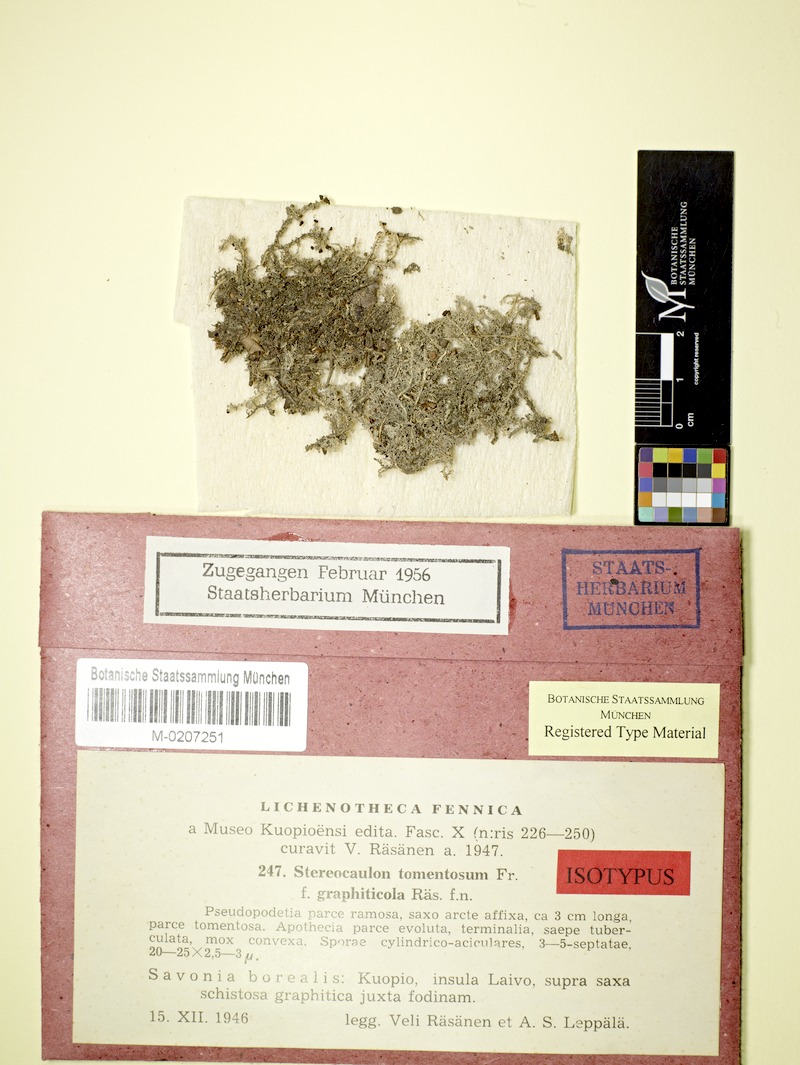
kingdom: Fungi
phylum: Ascomycota
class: Lecanoromycetes
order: Lecanorales
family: Stereocaulaceae
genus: Stereocaulon
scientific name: Stereocaulon tomentosum
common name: Woolly foam
